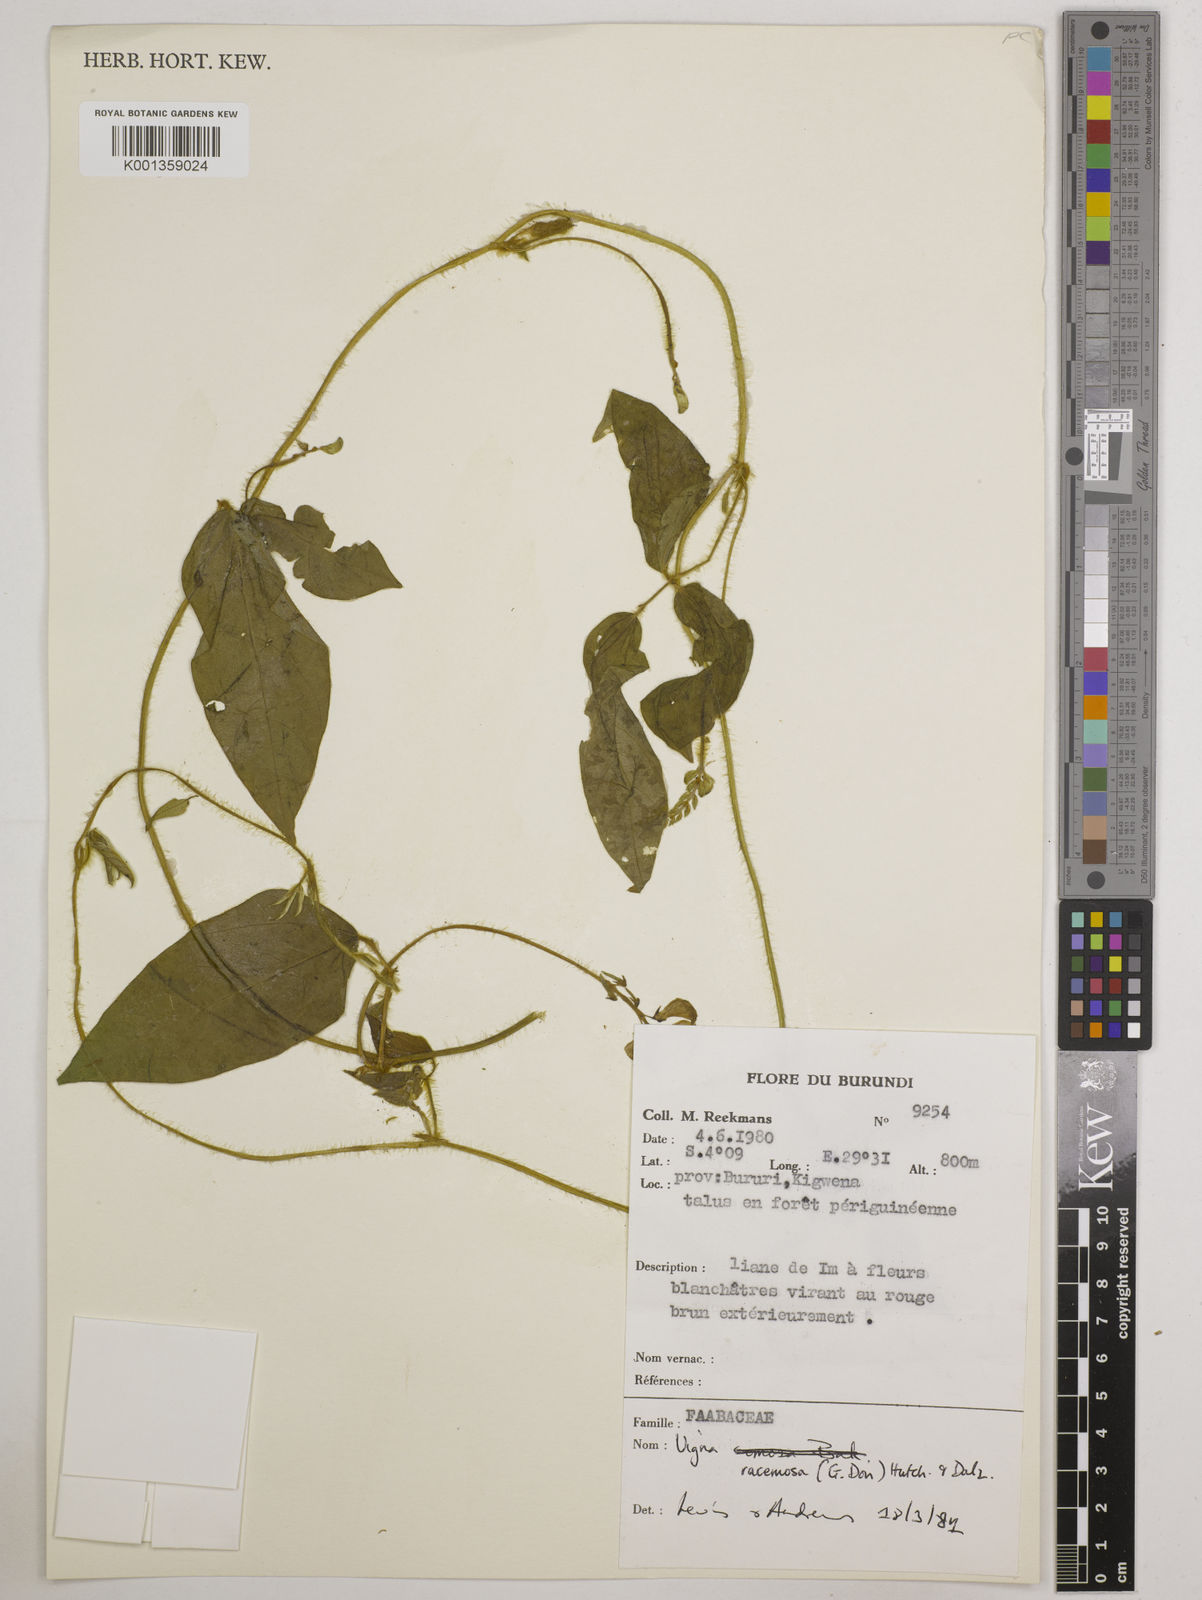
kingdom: Plantae
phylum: Tracheophyta
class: Magnoliopsida
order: Fabales
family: Fabaceae
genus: Vigna
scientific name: Vigna racemosa
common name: Beans not eaten
